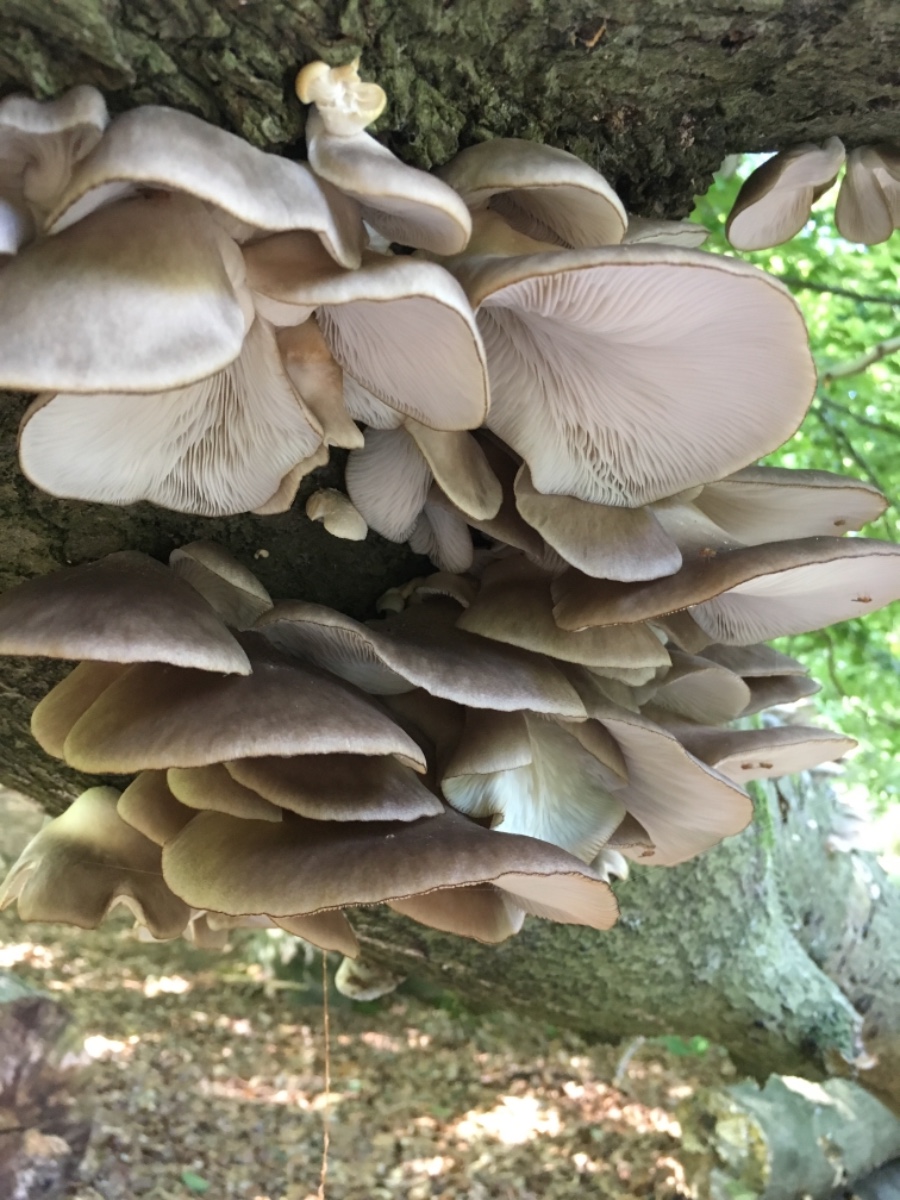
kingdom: Fungi
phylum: Basidiomycota
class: Agaricomycetes
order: Agaricales
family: Pleurotaceae
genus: Pleurotus
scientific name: Pleurotus pulmonarius
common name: sommer-østershat
